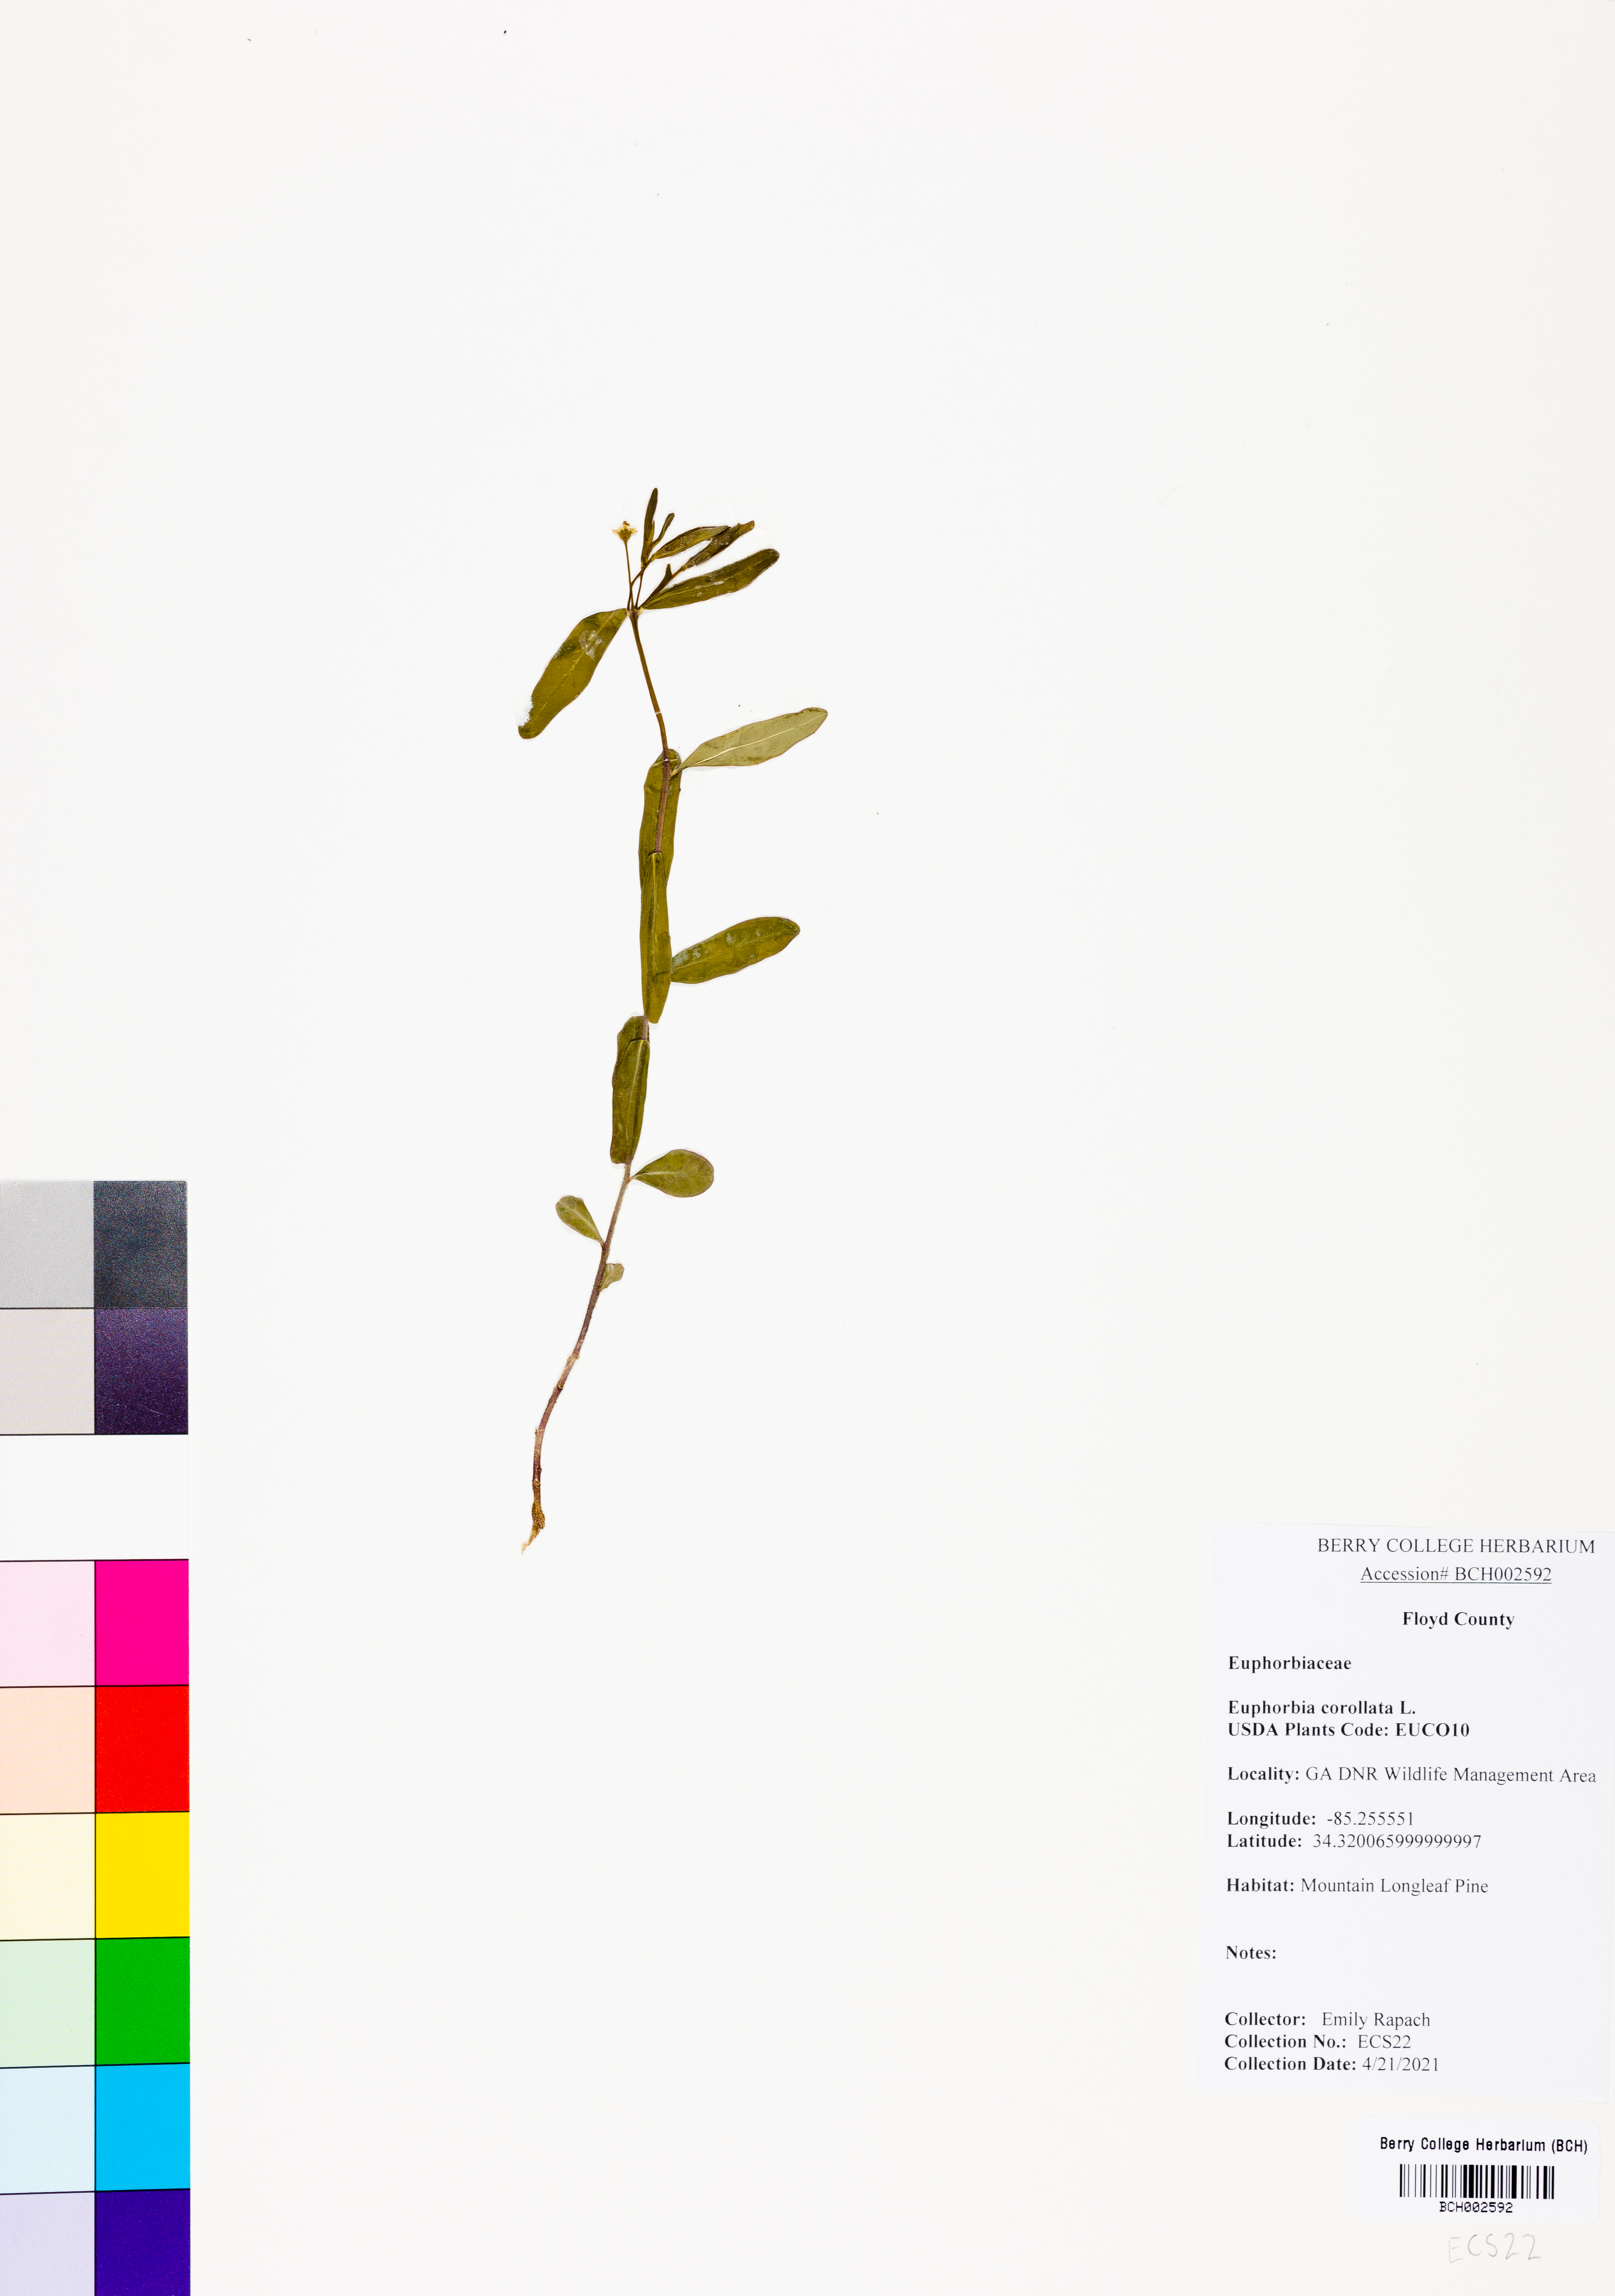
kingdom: Plantae
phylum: Tracheophyta
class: Magnoliopsida
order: Malpighiales
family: Euphorbiaceae
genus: Euphorbia
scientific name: Euphorbia corollata
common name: Flowering spurge
